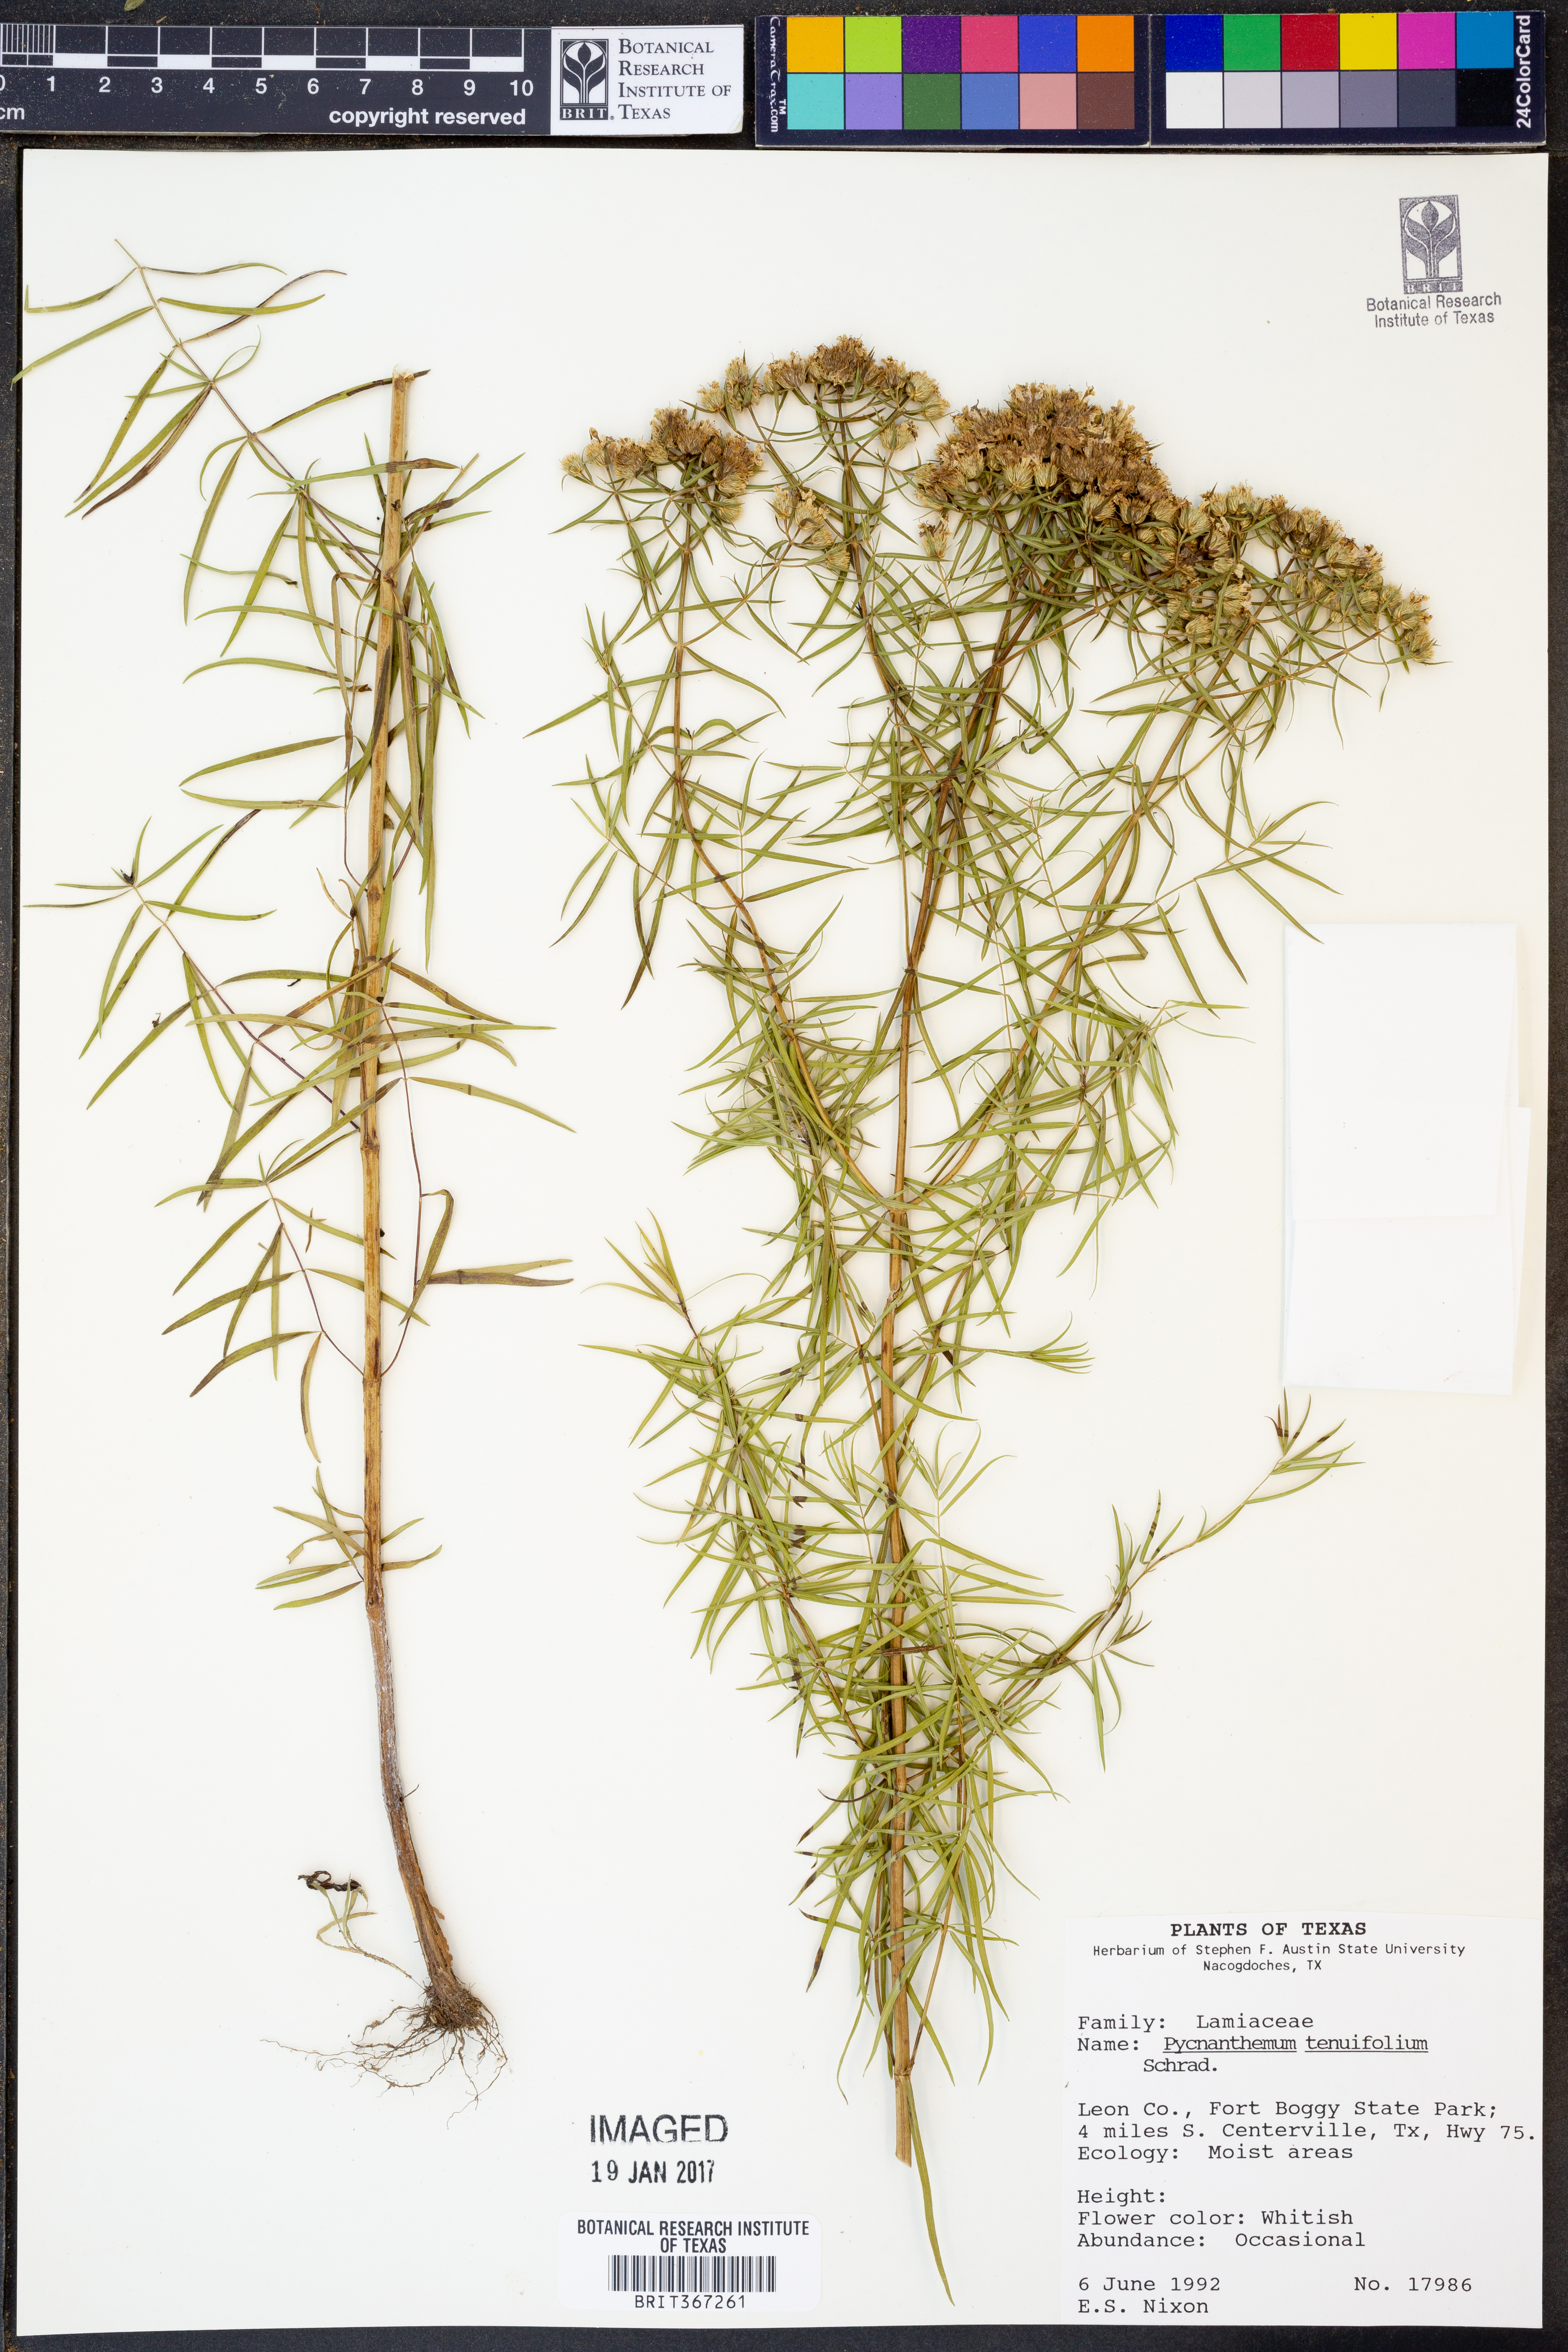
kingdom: Plantae
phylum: Tracheophyta
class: Magnoliopsida
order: Lamiales
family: Lamiaceae
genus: Pycnanthemum
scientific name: Pycnanthemum tenuifolium
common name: Narrow-leaf mountain-mint
